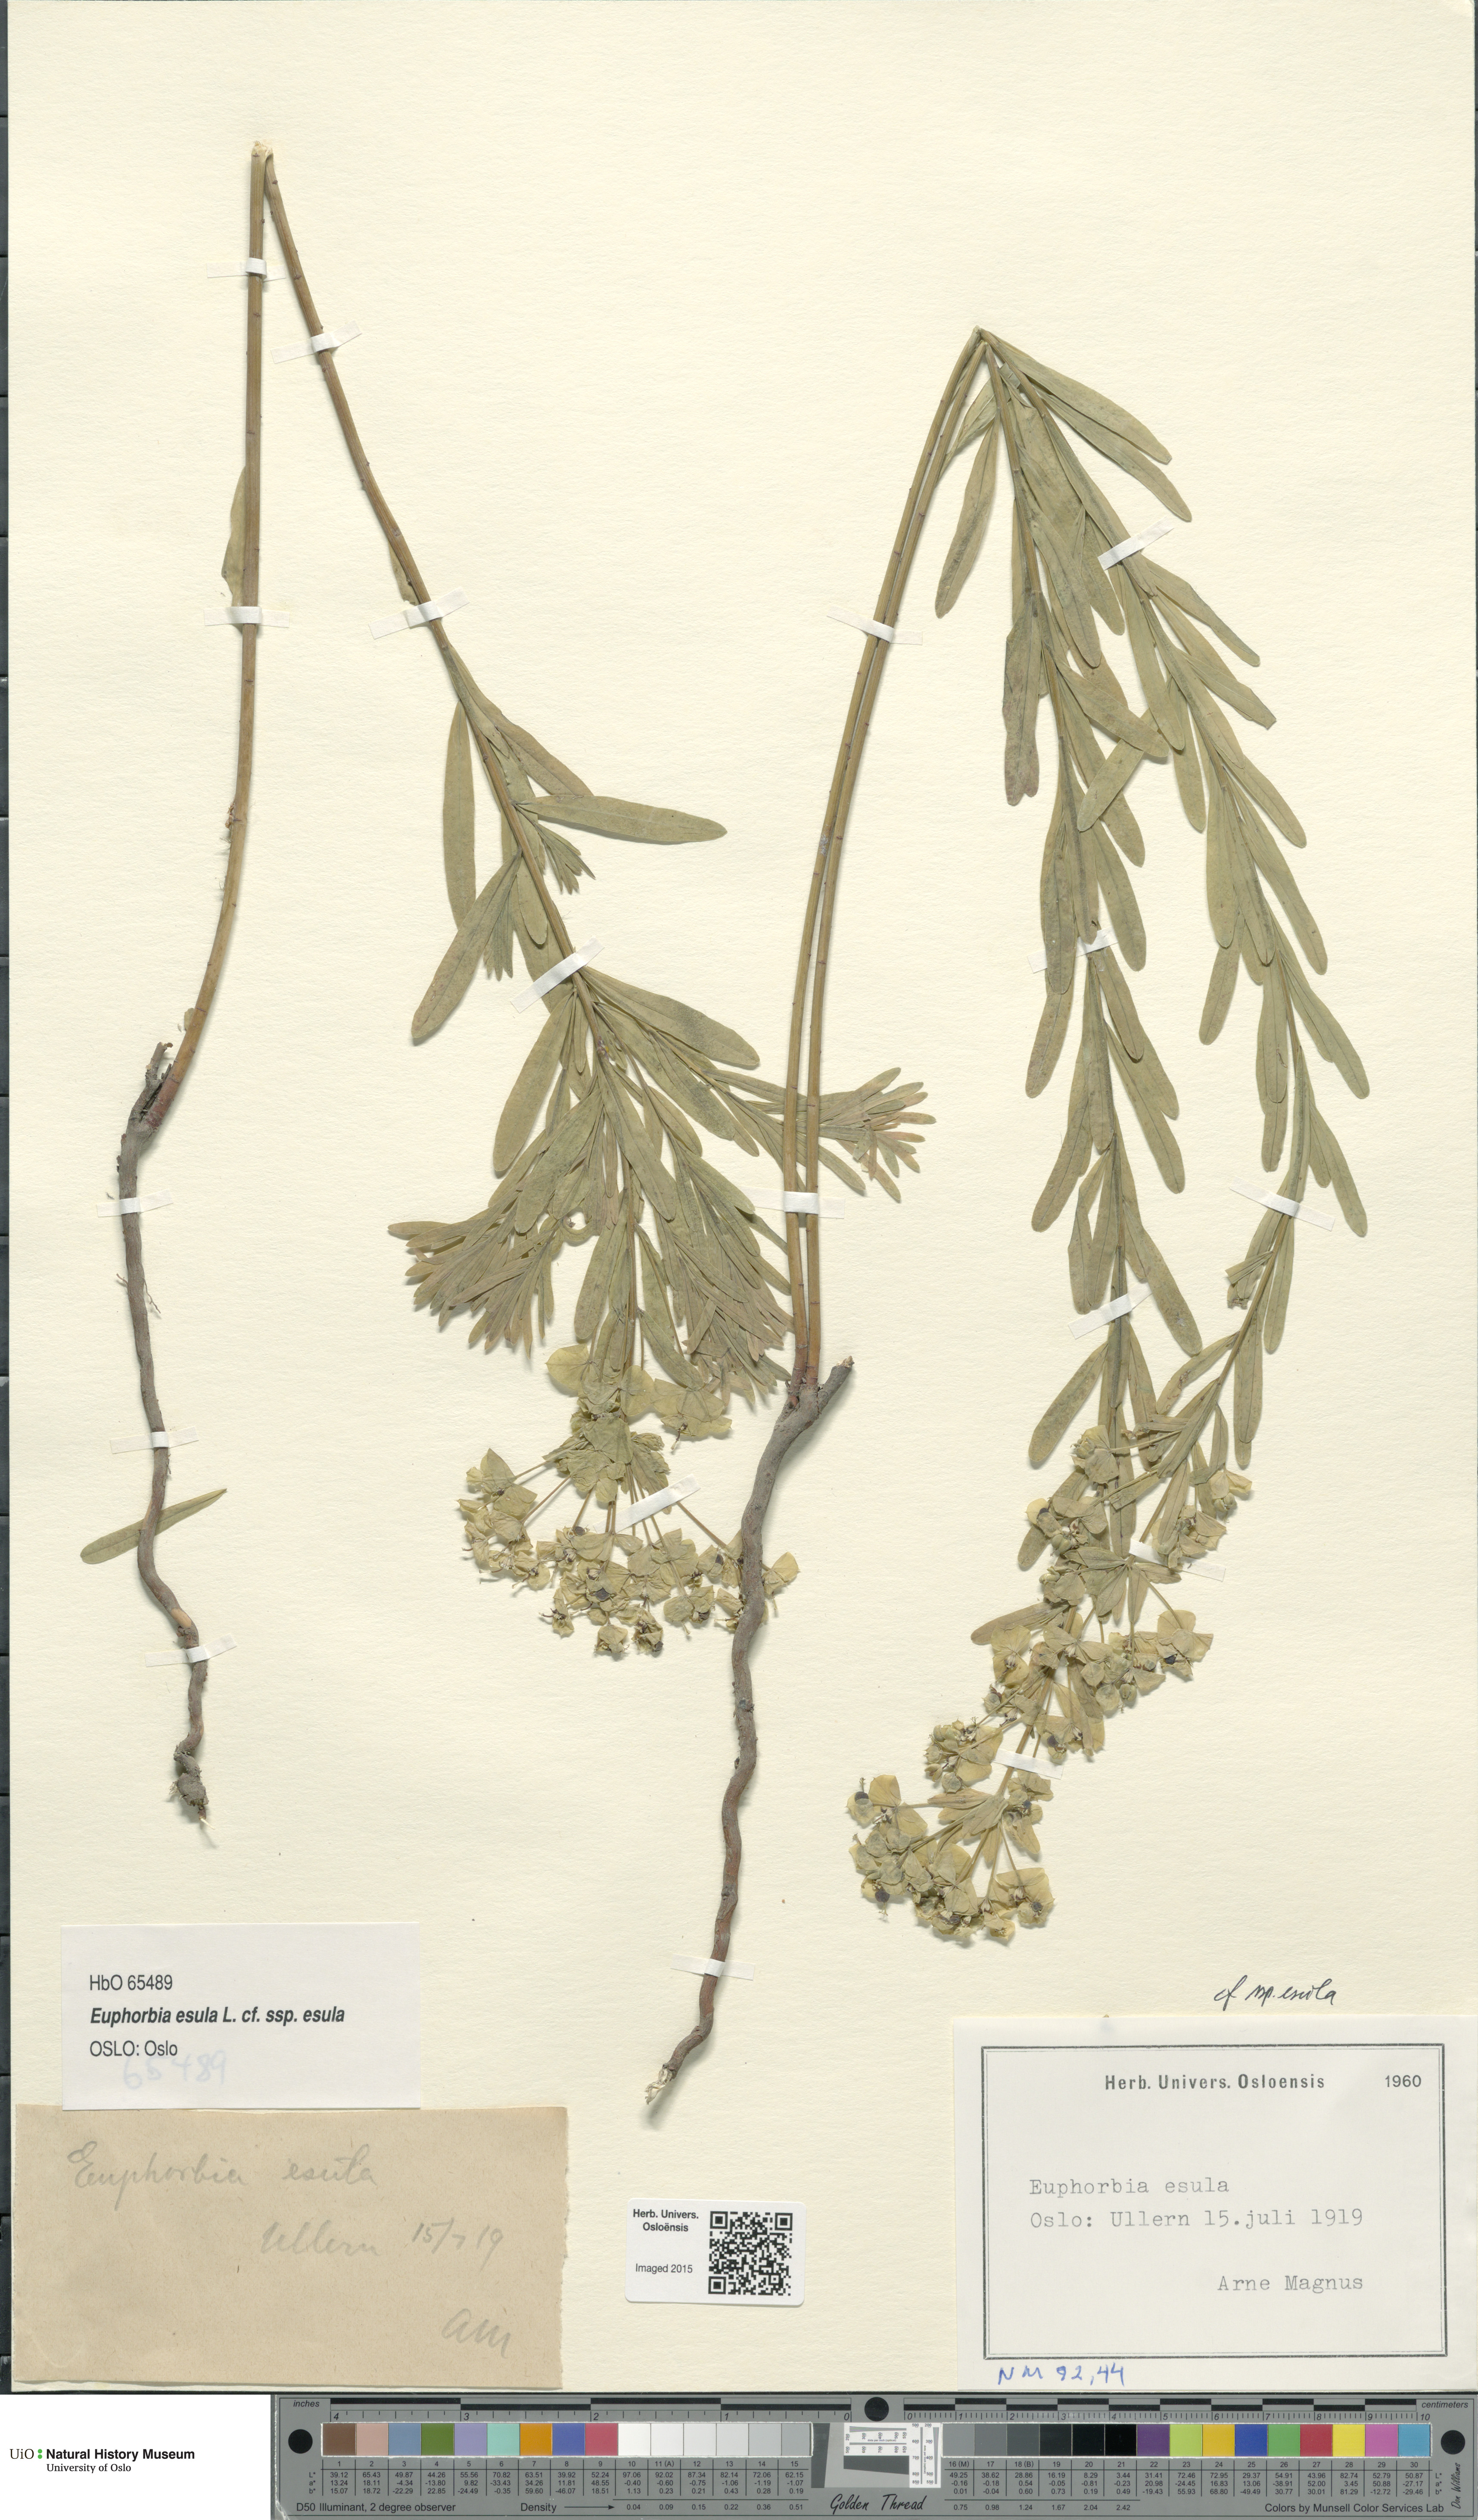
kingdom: Plantae
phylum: Tracheophyta
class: Magnoliopsida
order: Malpighiales
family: Euphorbiaceae
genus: Euphorbia
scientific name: Euphorbia esula
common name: Leafy spurge
